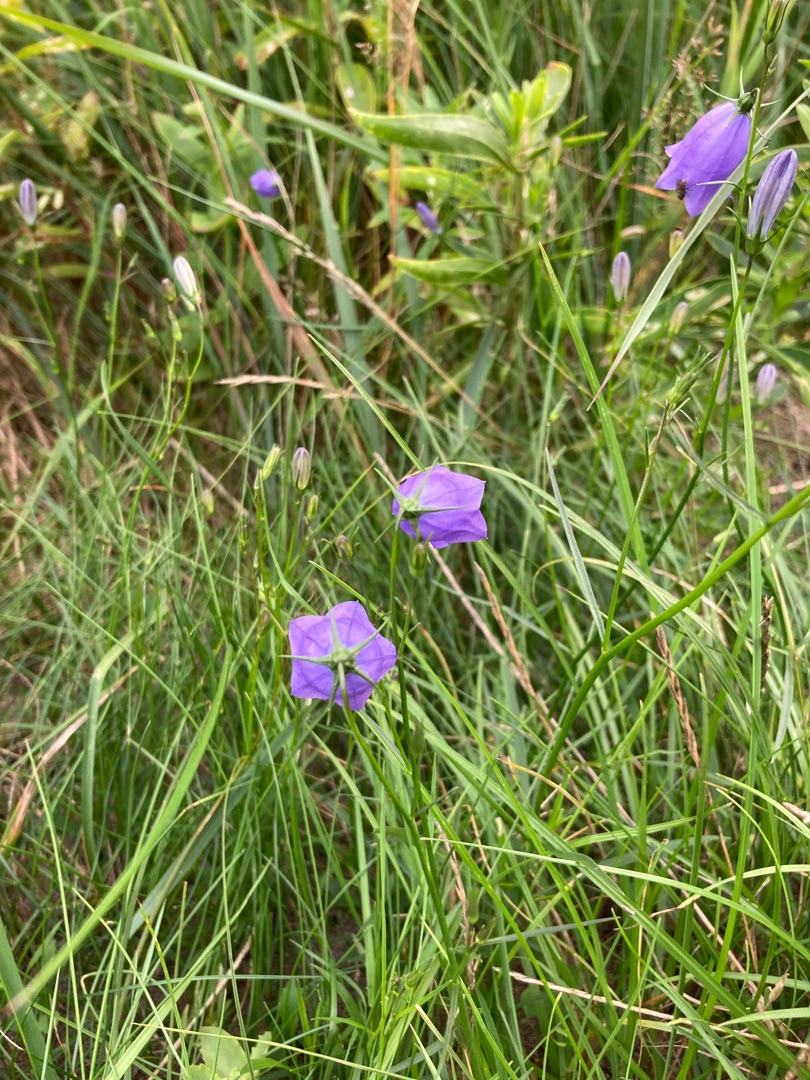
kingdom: Plantae
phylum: Tracheophyta
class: Magnoliopsida
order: Asterales
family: Campanulaceae
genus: Campanula
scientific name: Campanula rotundifolia
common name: Liden klokke
